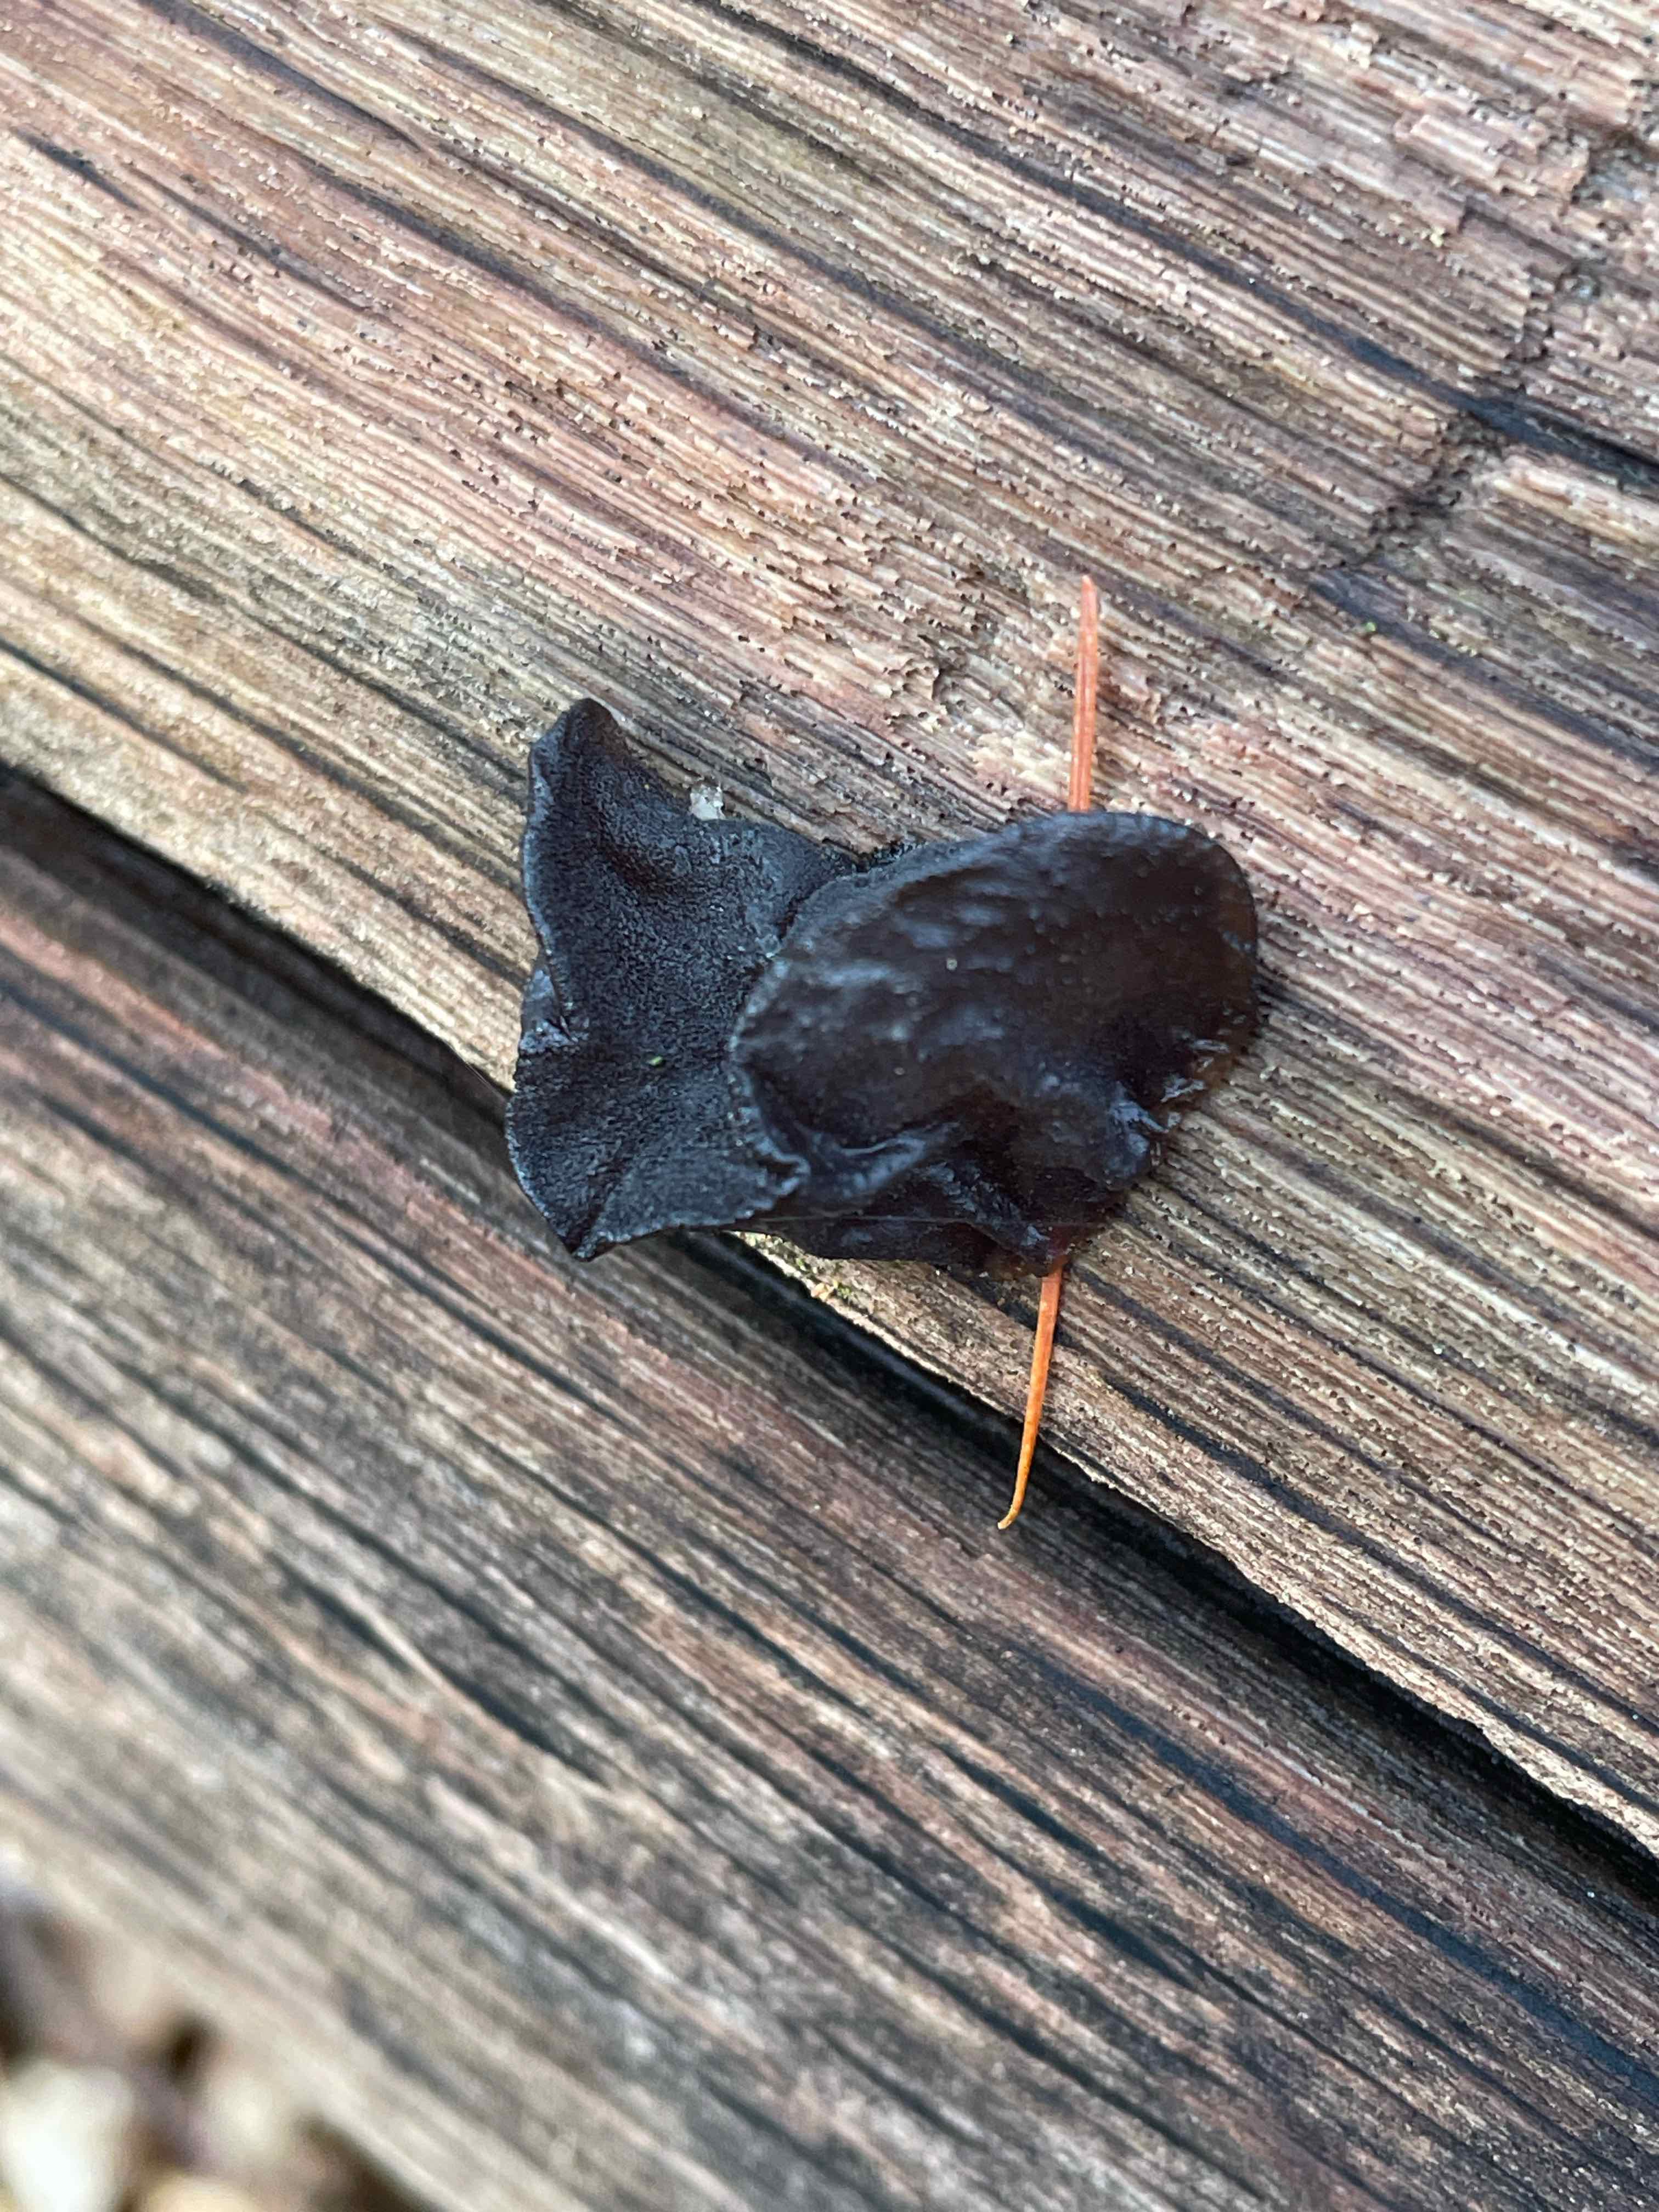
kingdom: Fungi
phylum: Basidiomycota
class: Agaricomycetes
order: Auriculariales
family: Auriculariaceae
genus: Exidia
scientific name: Exidia glandulosa
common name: ege-bævretop
